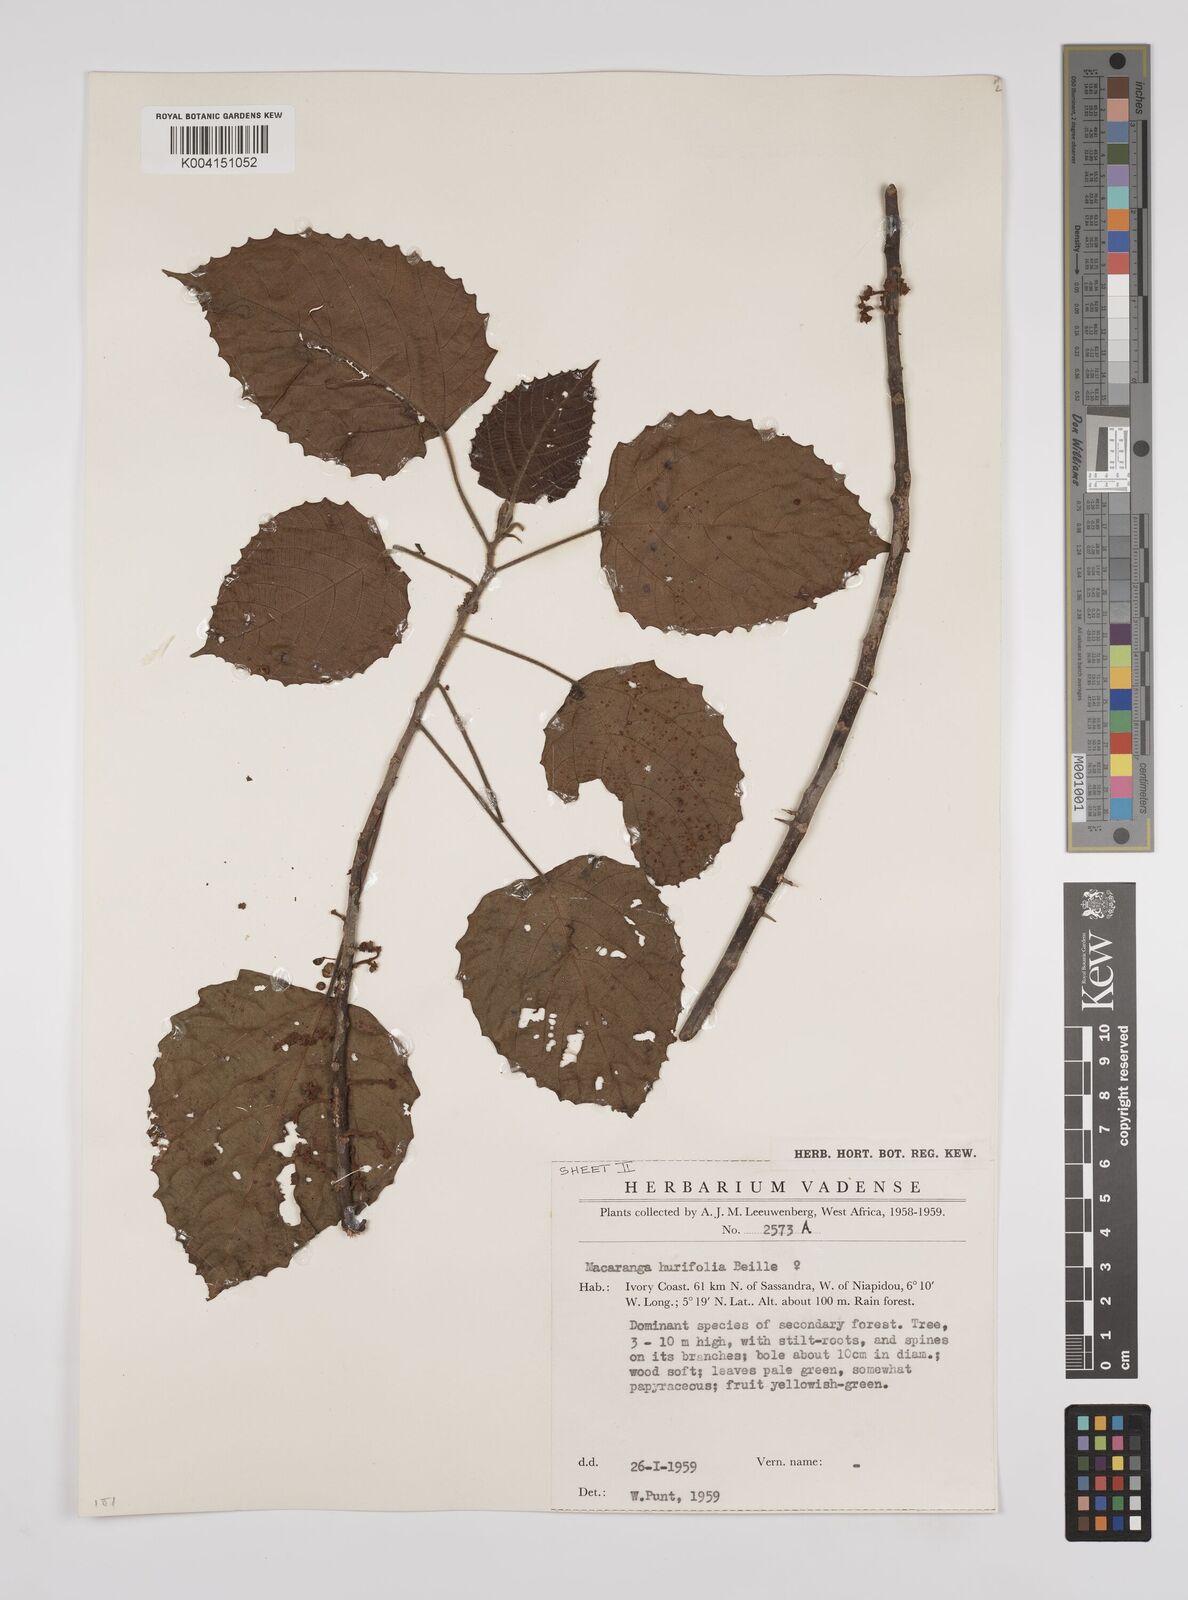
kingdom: Plantae
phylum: Tracheophyta
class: Magnoliopsida
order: Malpighiales
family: Euphorbiaceae
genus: Macaranga
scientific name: Macaranga hurifolia
